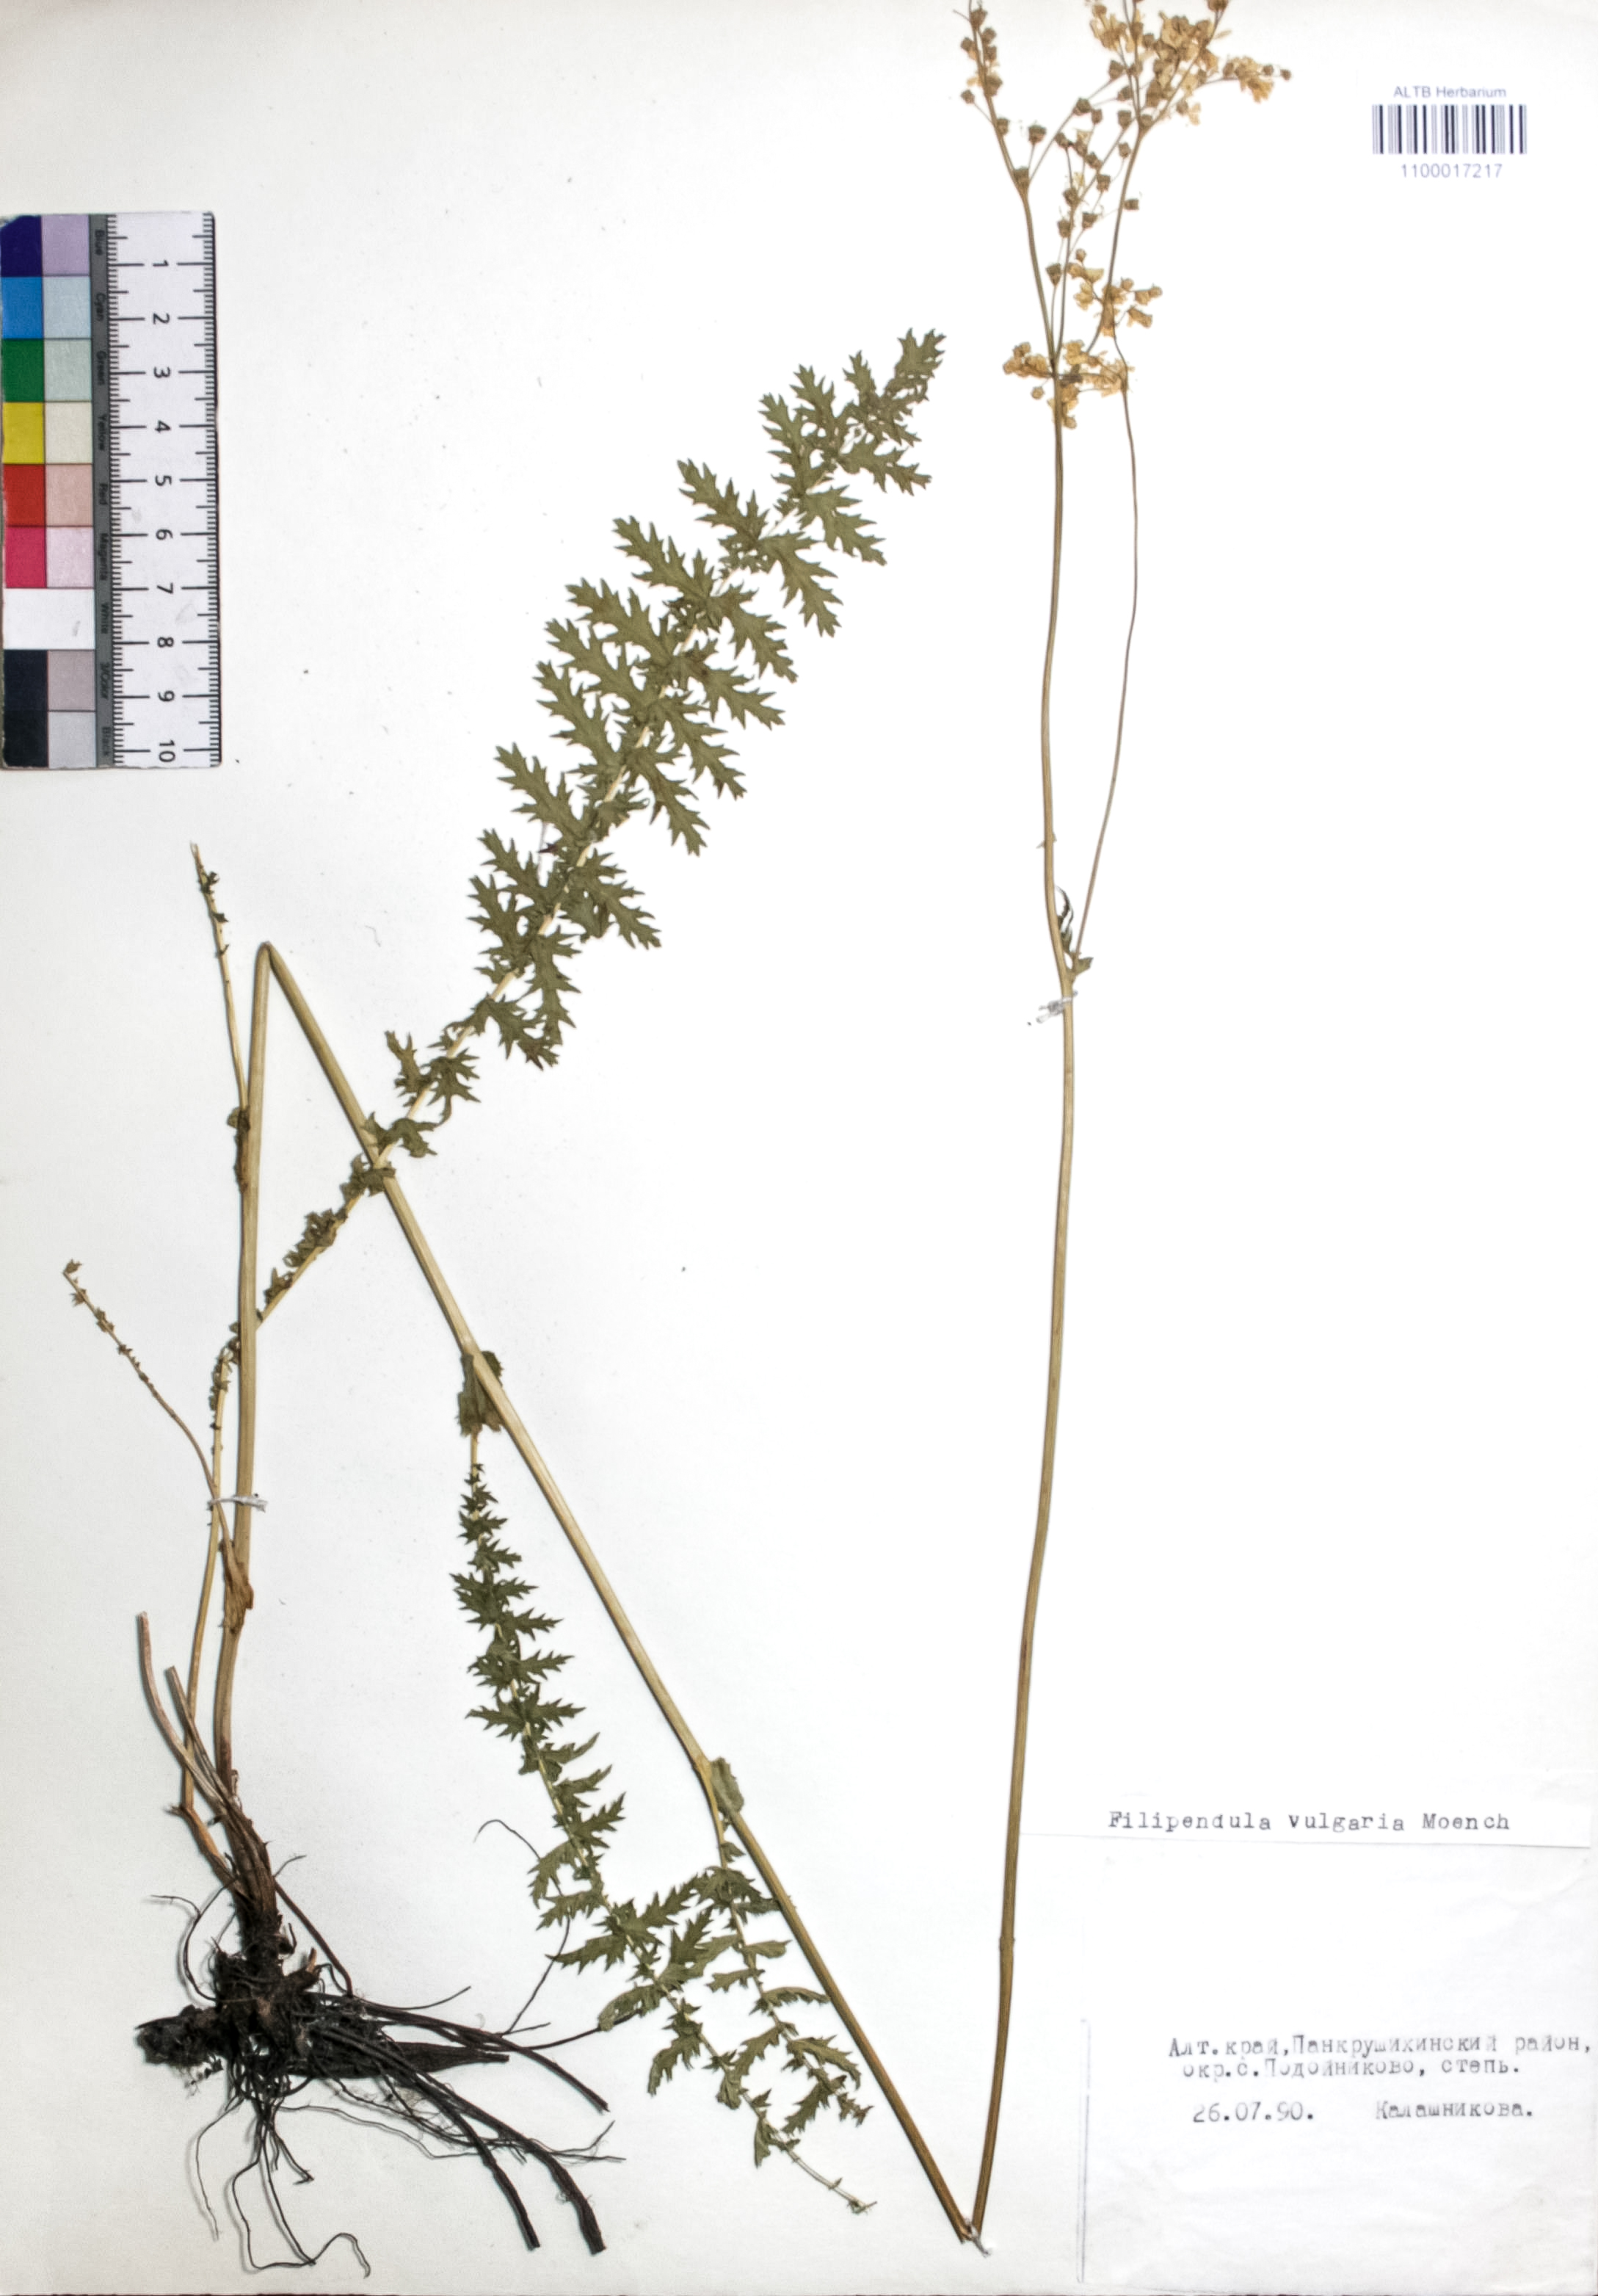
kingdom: Plantae
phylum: Tracheophyta
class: Magnoliopsida
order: Rosales
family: Rosaceae
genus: Filipendula
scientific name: Filipendula vulgaris
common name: Dropwort
